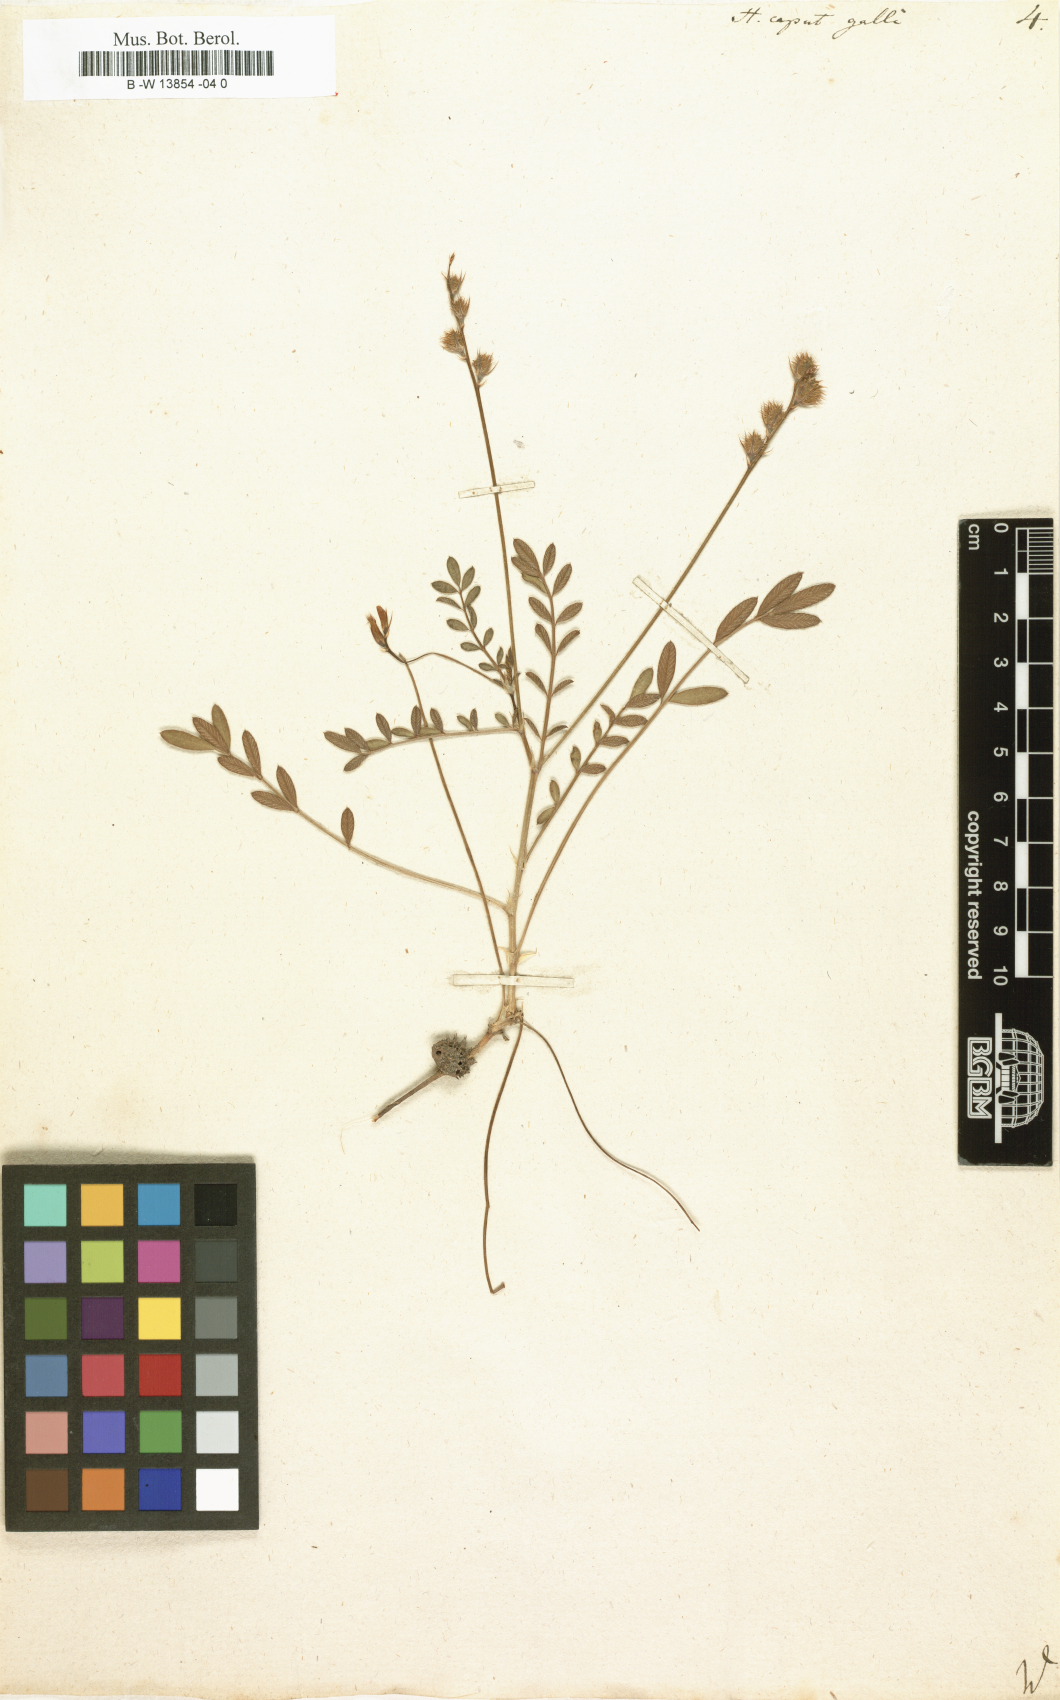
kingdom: Plantae
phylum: Tracheophyta
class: Magnoliopsida
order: Fabales
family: Fabaceae
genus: Onobrychis
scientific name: Onobrychis caput-galli
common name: Cockscomb sainfoin
